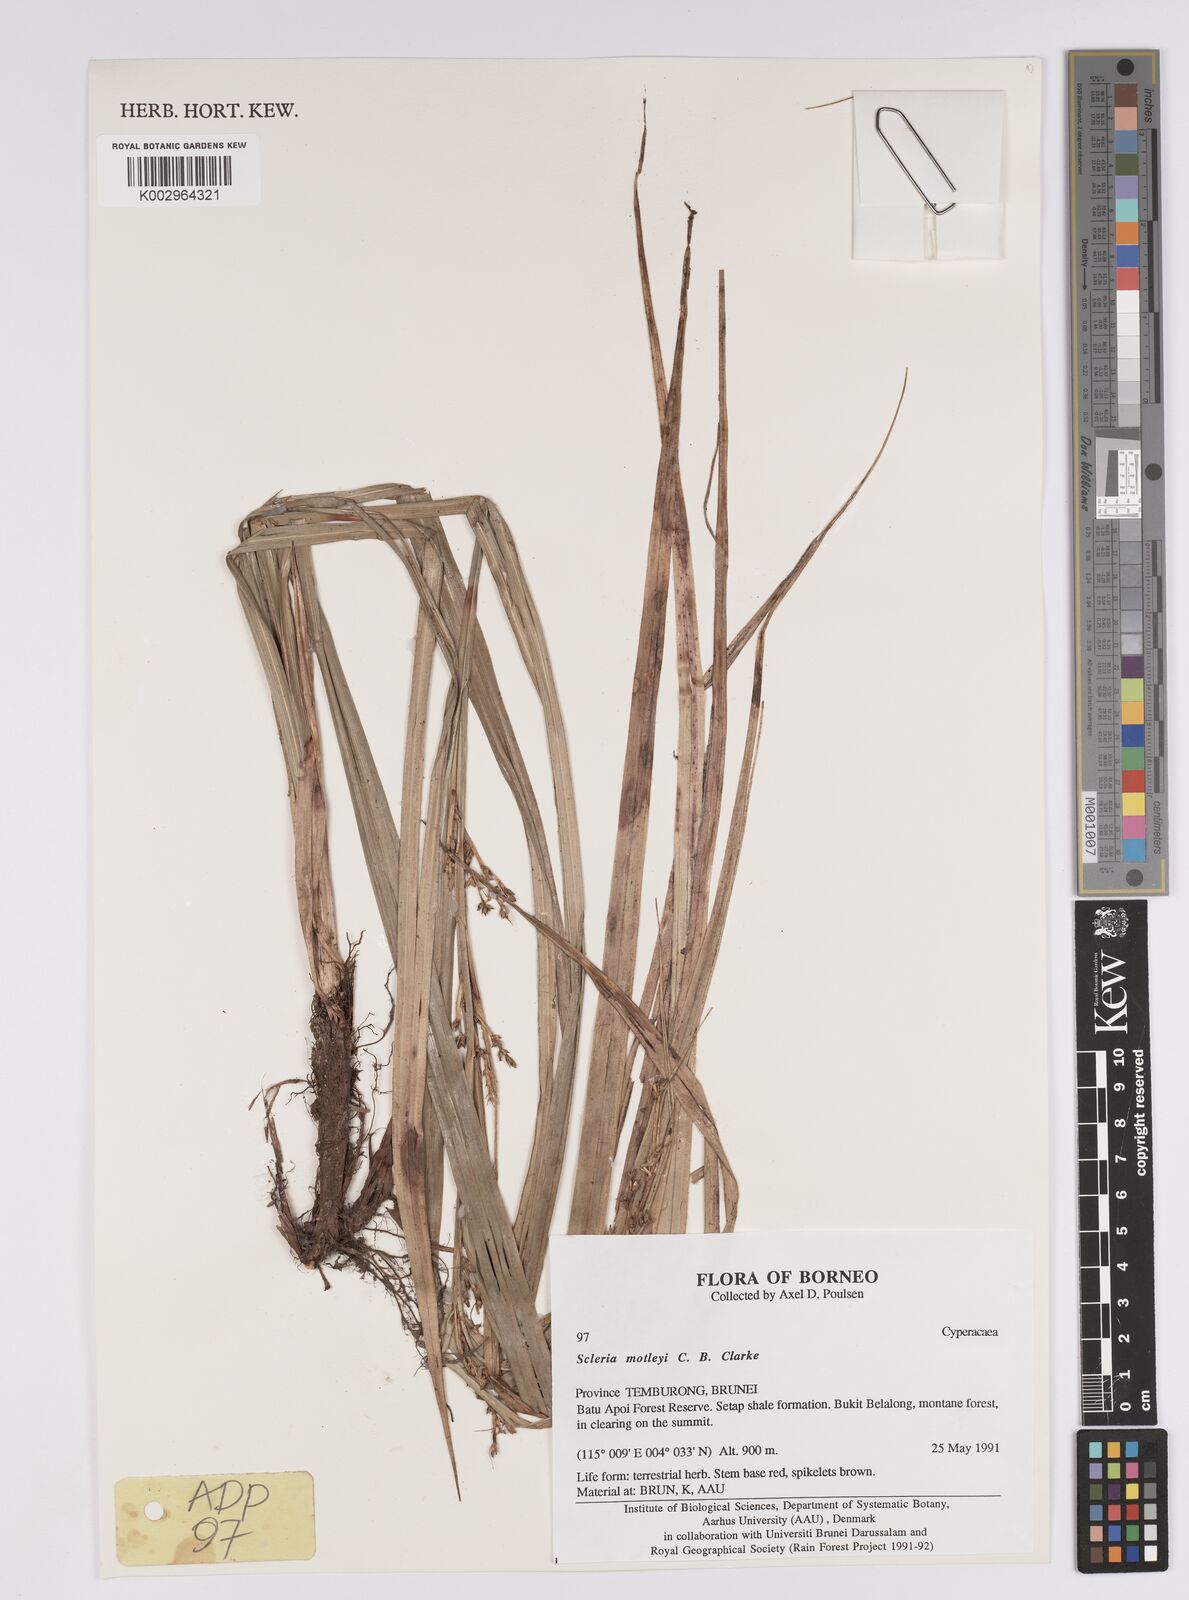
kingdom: Plantae
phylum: Tracheophyta
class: Liliopsida
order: Poales
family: Cyperaceae
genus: Scleria
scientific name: Scleria motleyi
